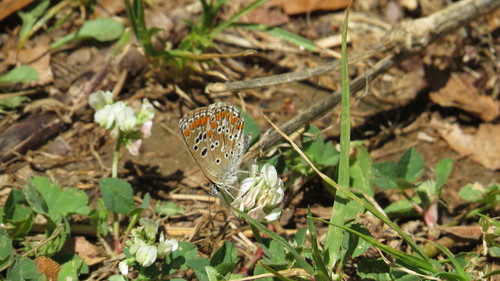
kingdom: Animalia
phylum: Arthropoda
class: Insecta
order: Lepidoptera
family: Lycaenidae
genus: Aricia
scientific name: Aricia cramera
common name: Eschscholtz´s brown  argus
